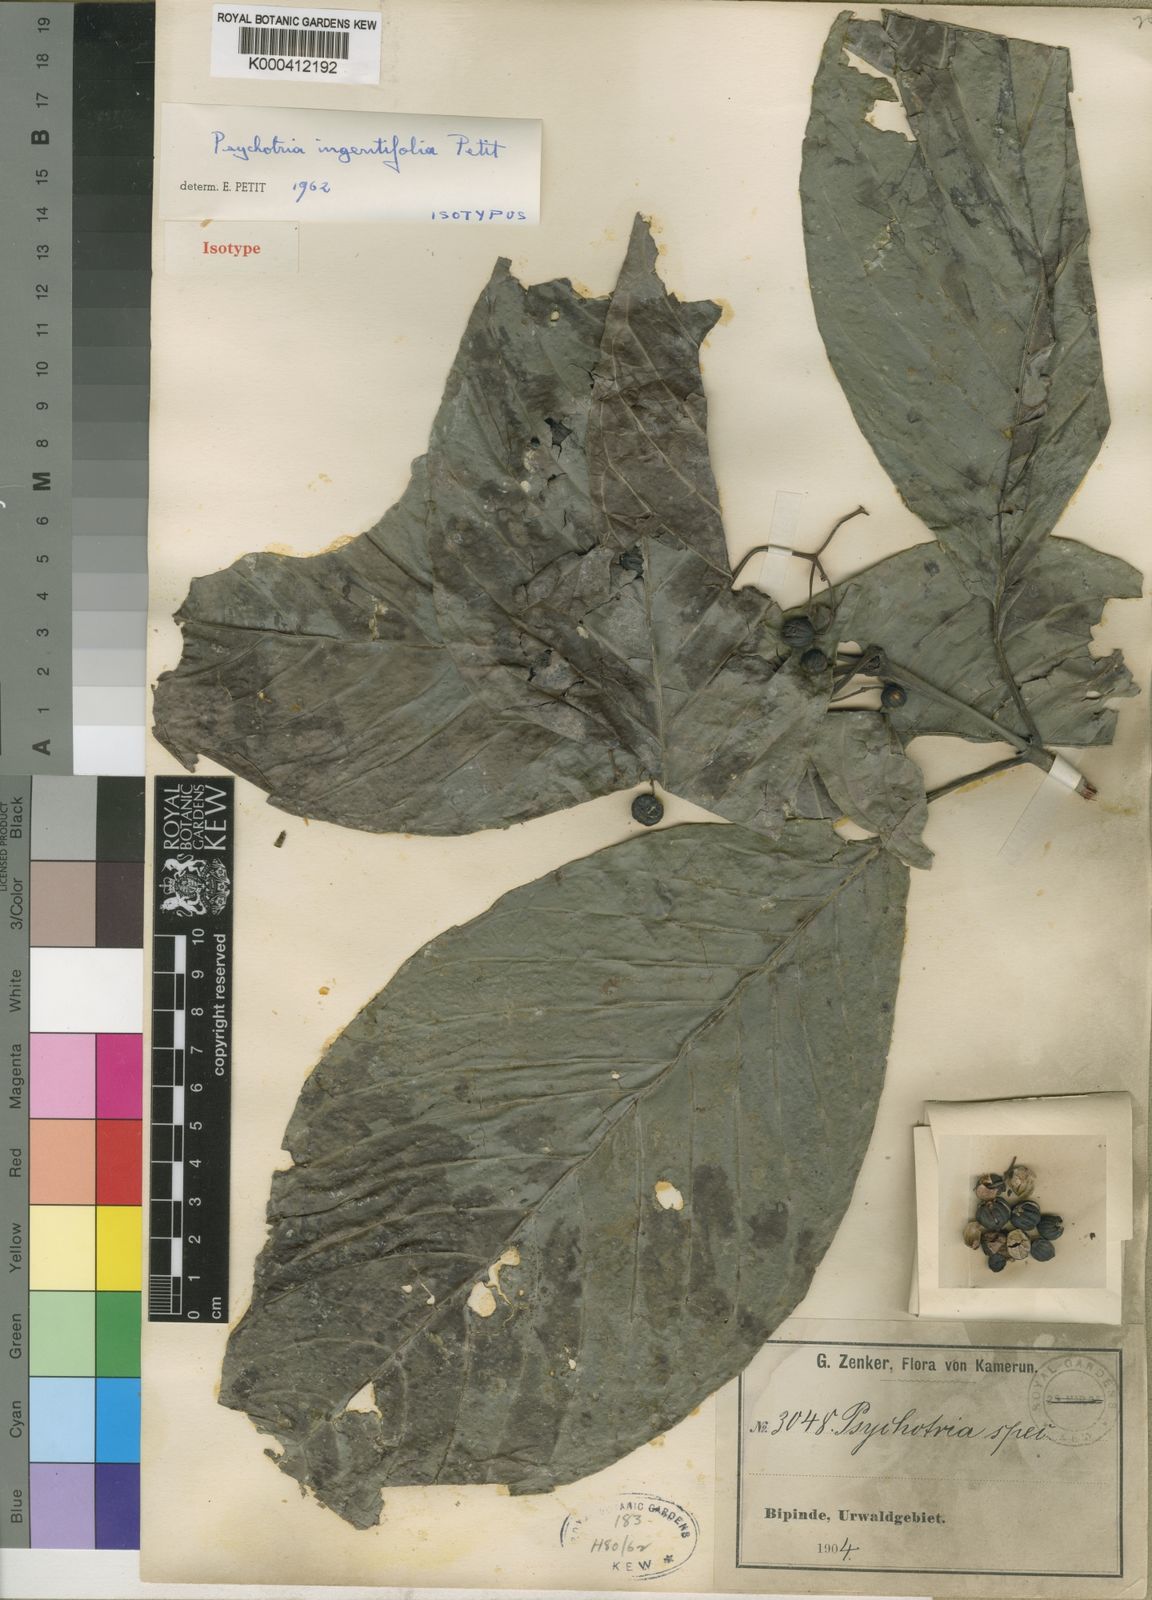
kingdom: Plantae
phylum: Tracheophyta
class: Magnoliopsida
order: Gentianales
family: Rubiaceae
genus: Psychotria
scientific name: Psychotria ingentifolia
